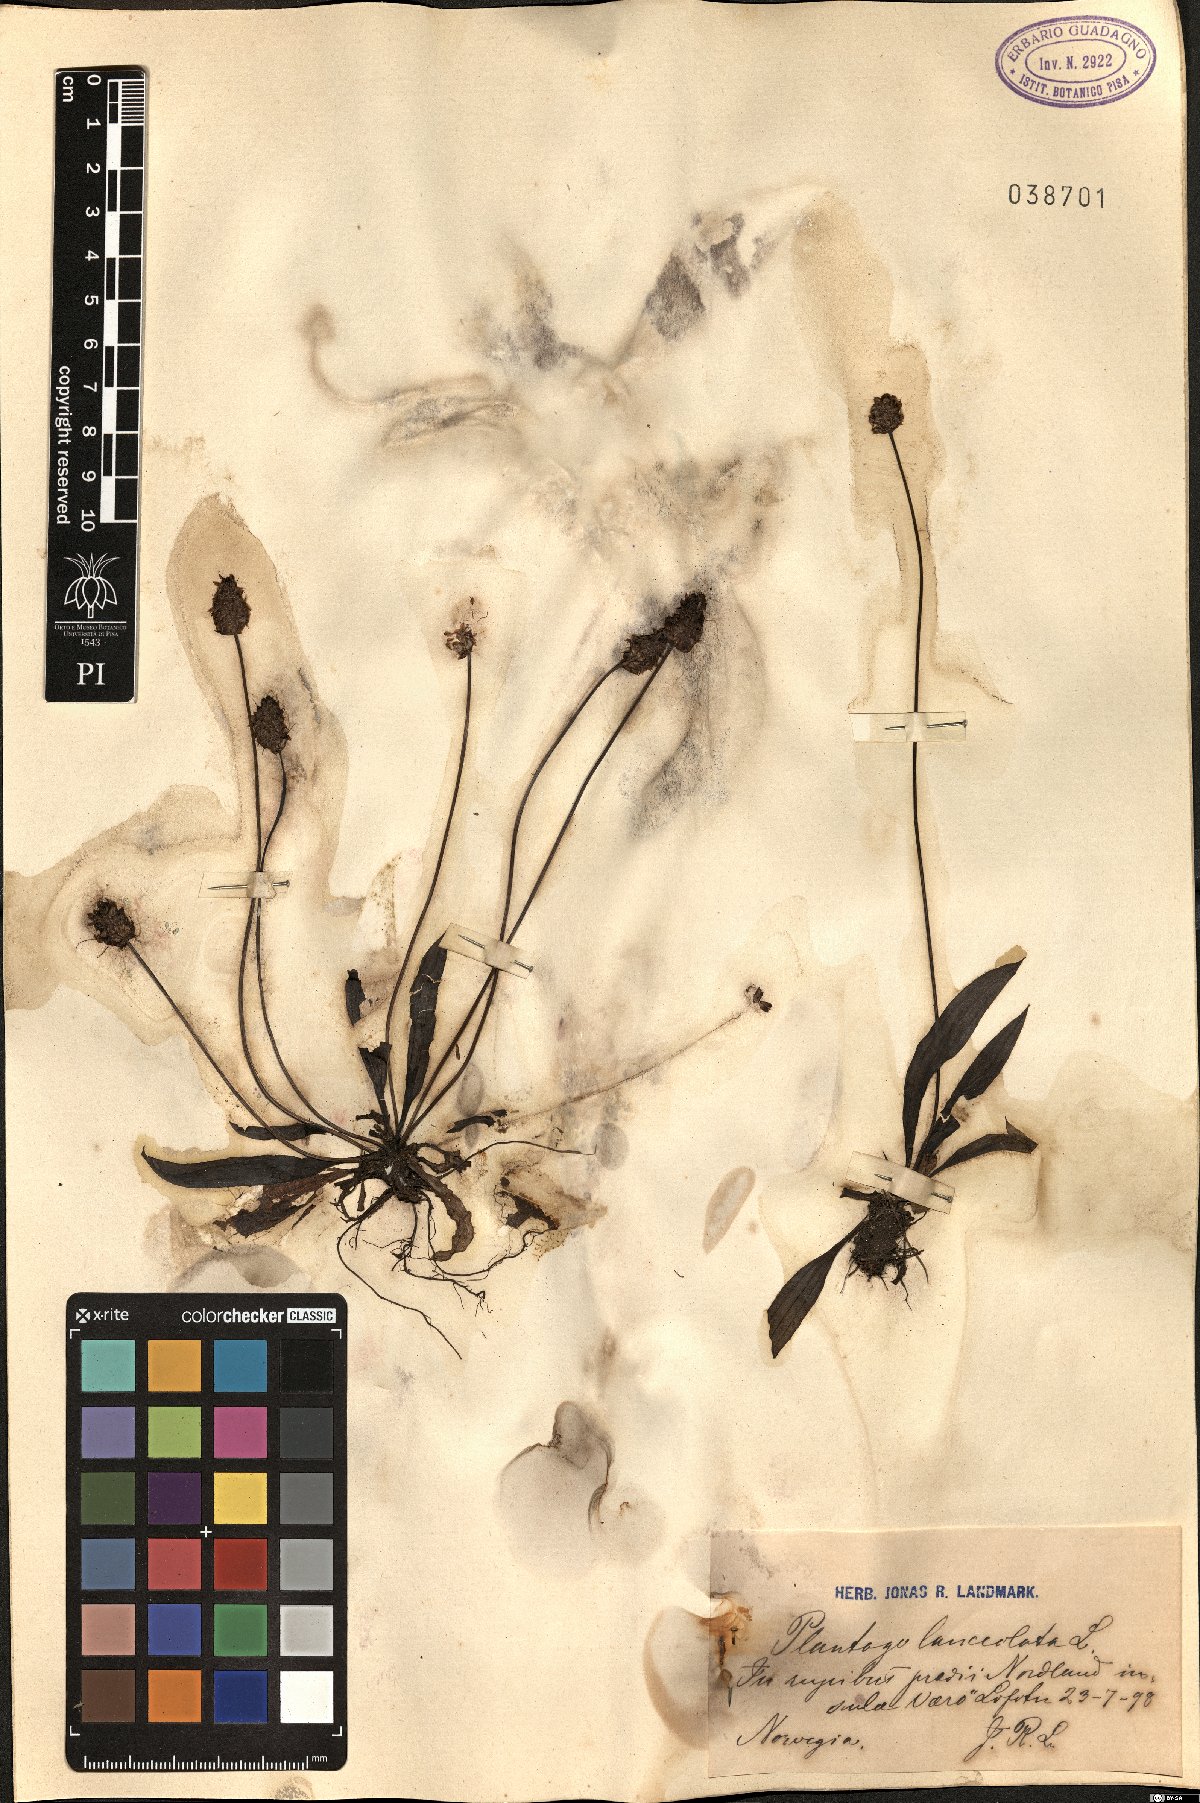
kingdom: Plantae
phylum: Tracheophyta
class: Magnoliopsida
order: Lamiales
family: Plantaginaceae
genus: Plantago
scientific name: Plantago lanceolata
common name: Ribwort plantain
